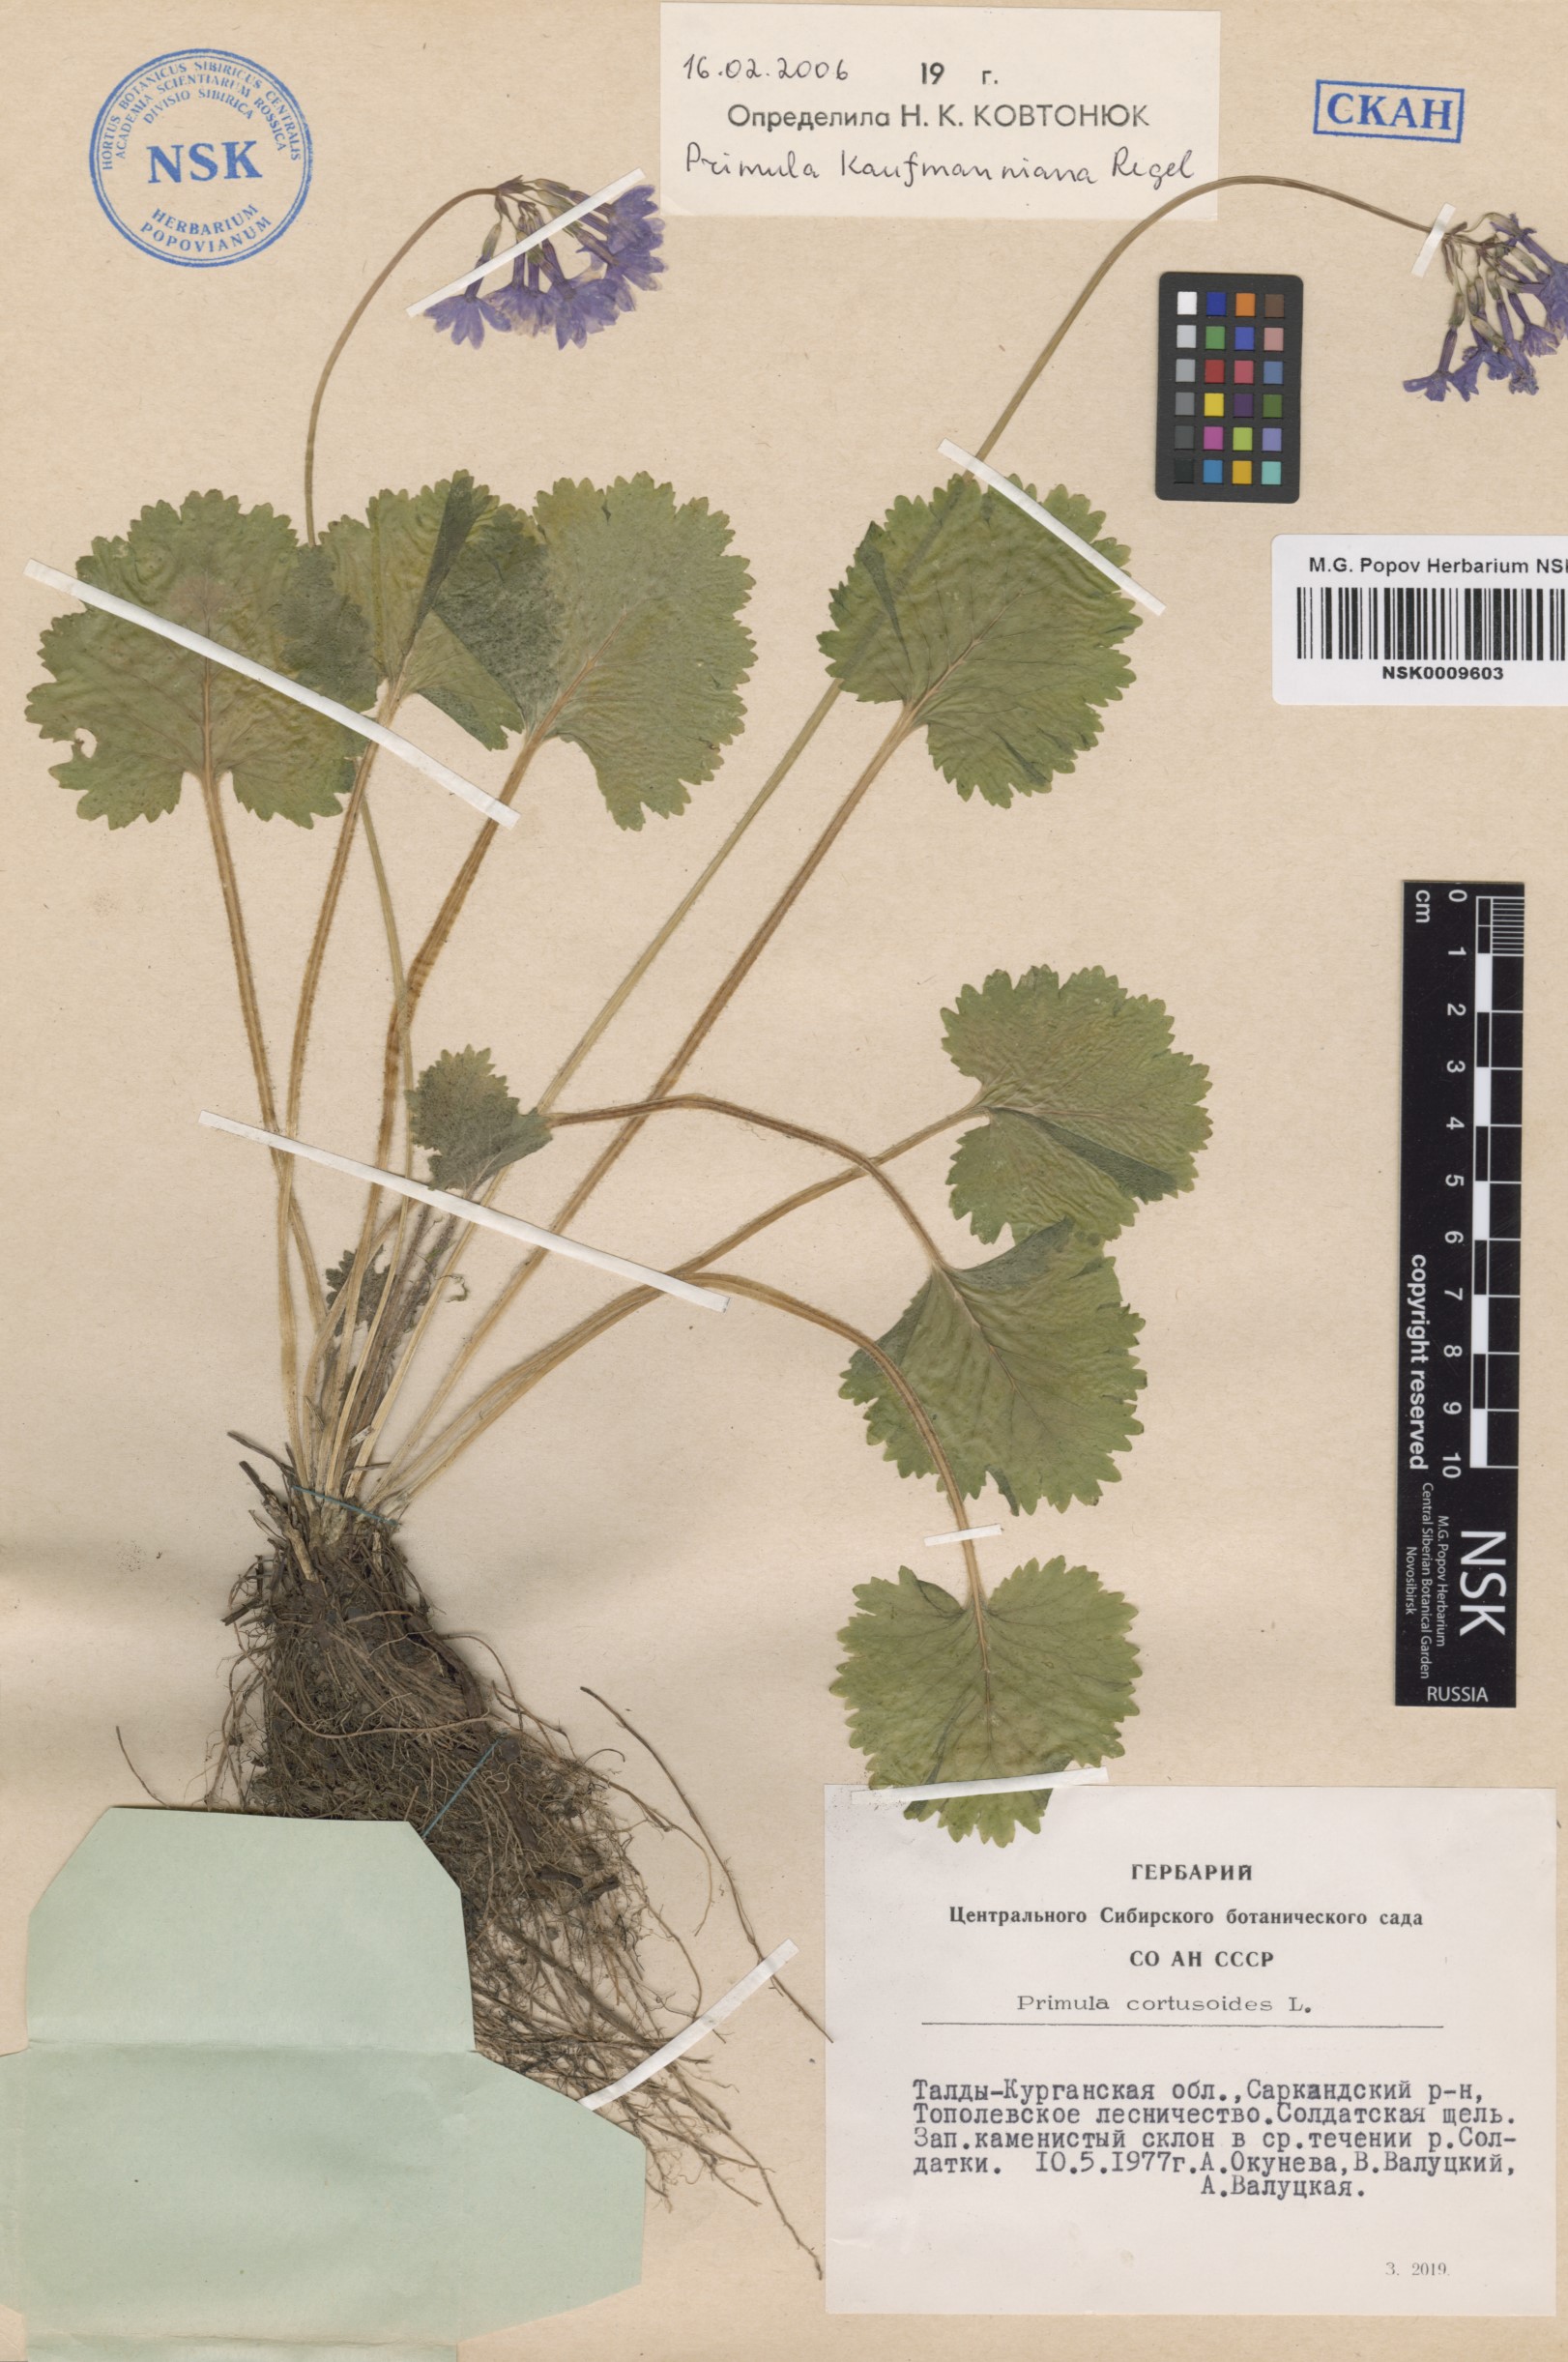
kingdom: Plantae
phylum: Tracheophyta
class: Magnoliopsida
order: Ericales
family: Primulaceae
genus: Primula
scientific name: Primula kaufmanniana
